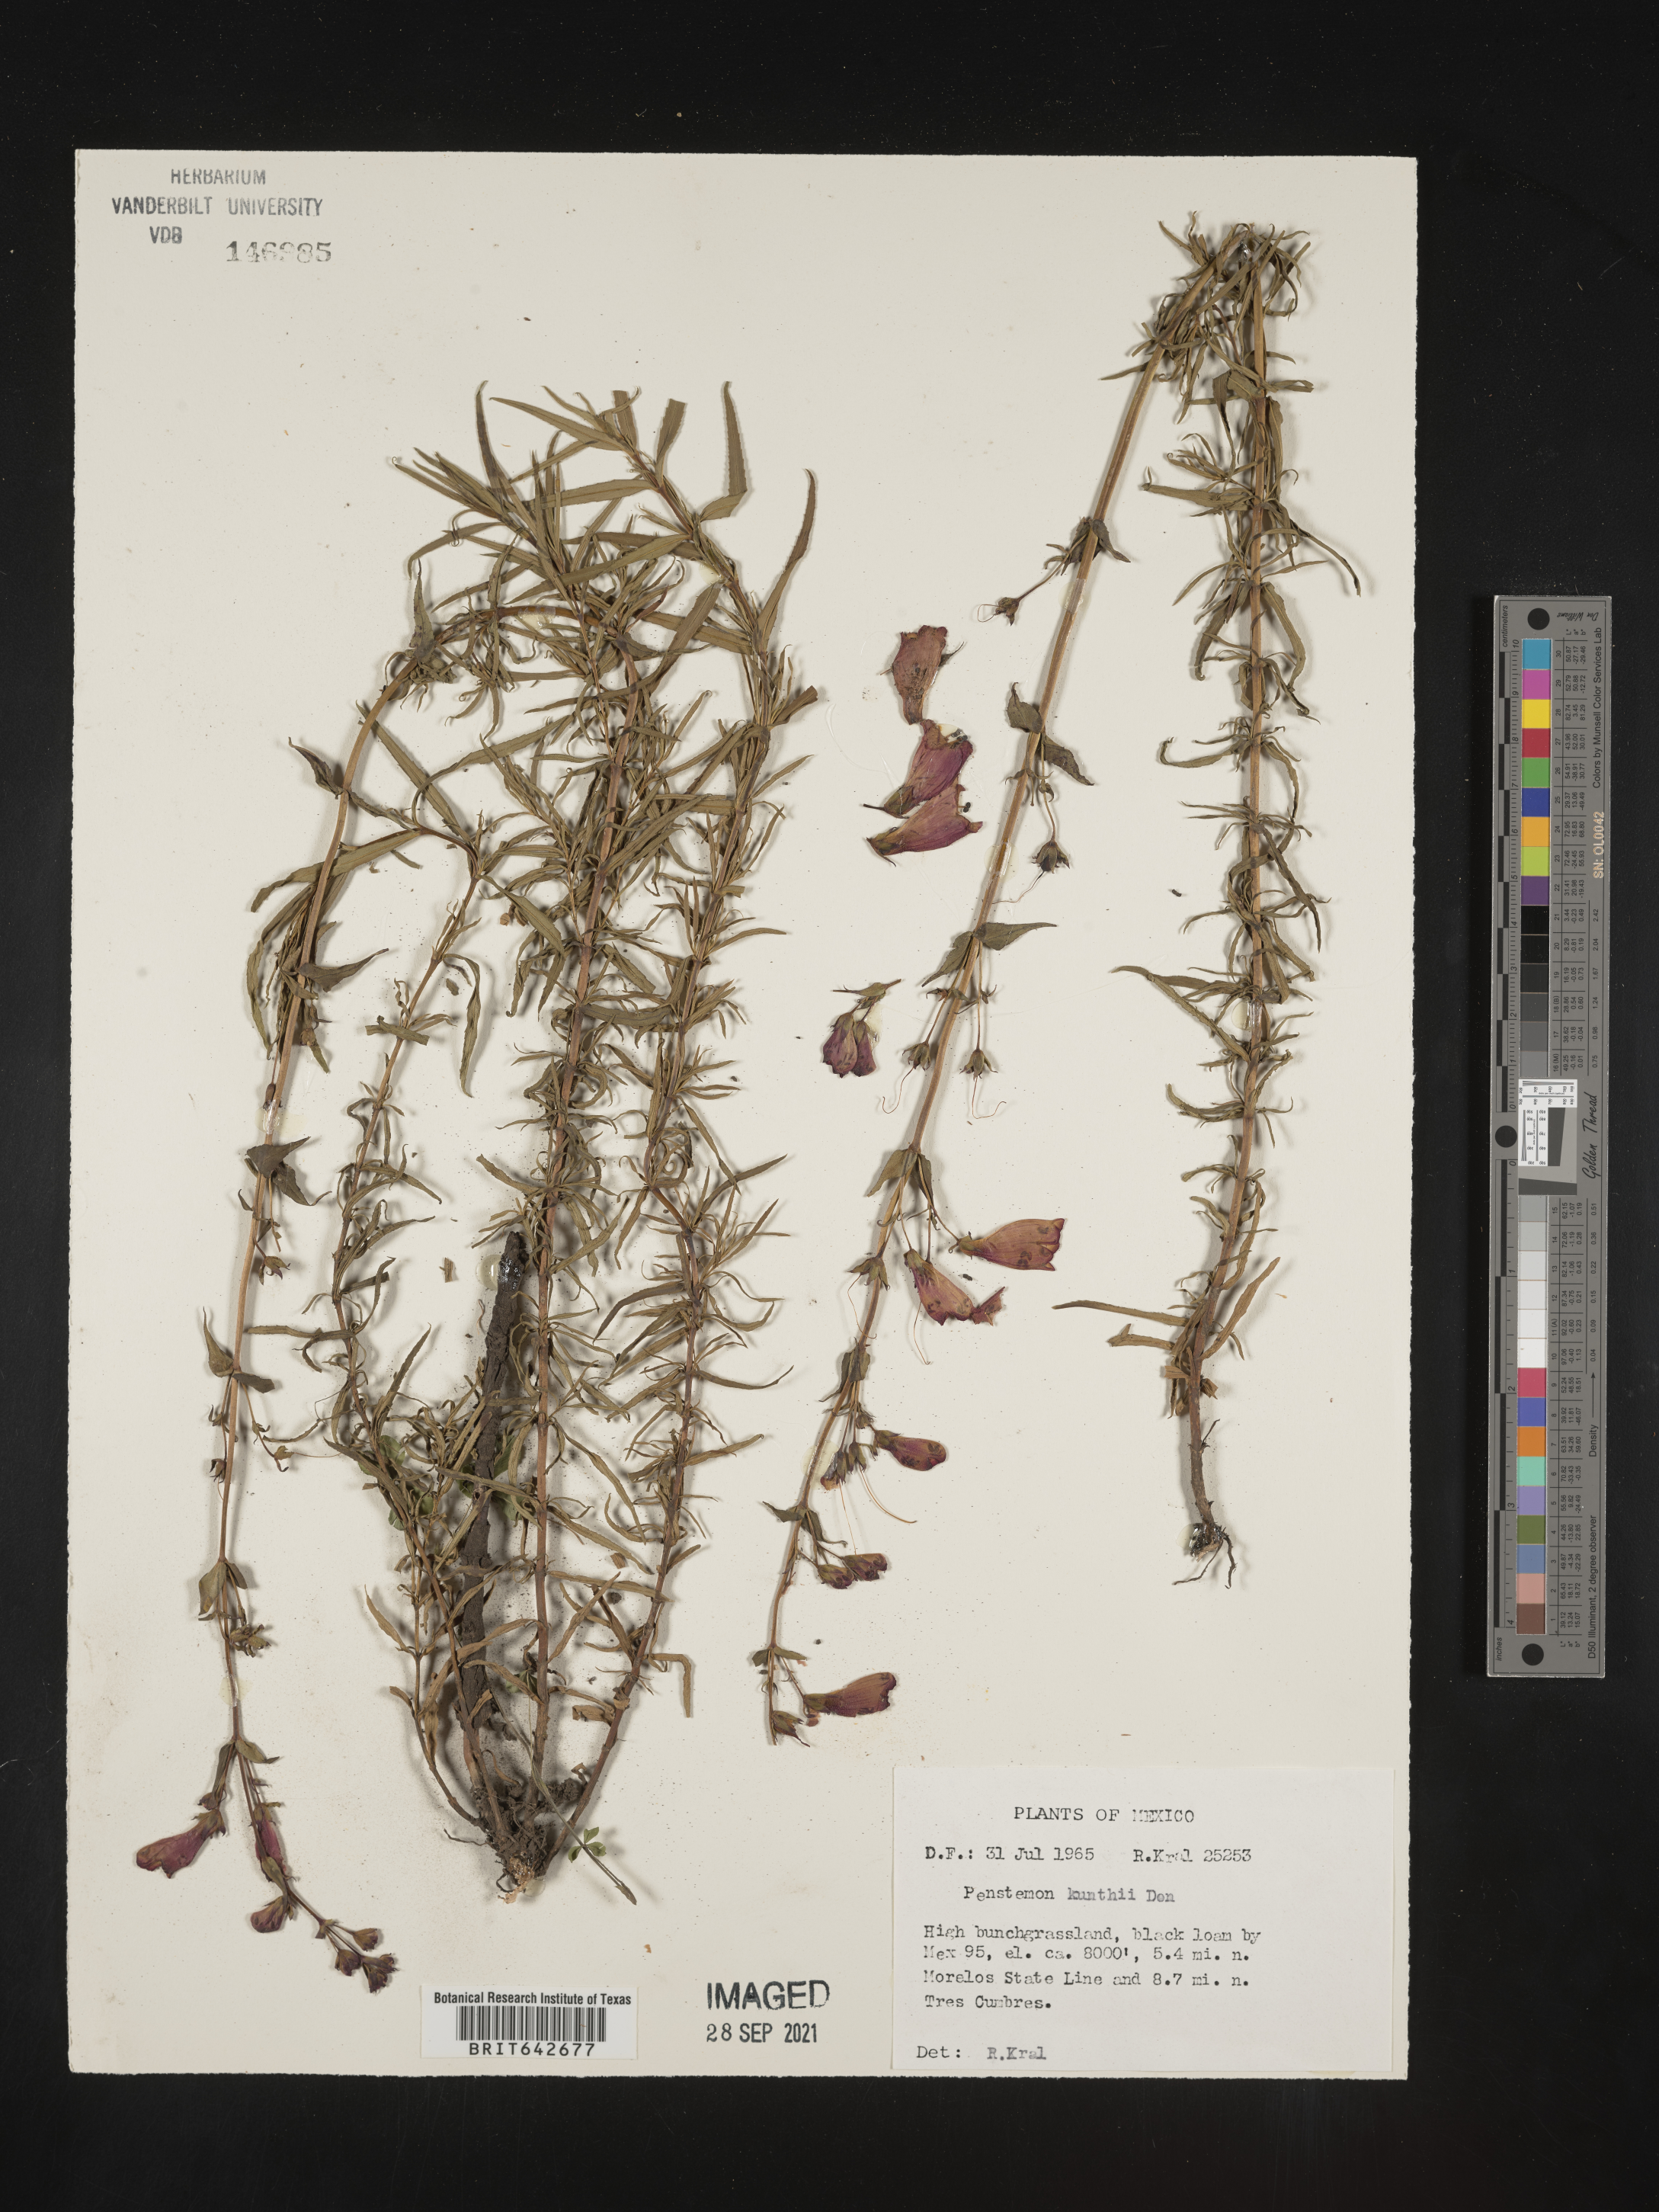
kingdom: Plantae
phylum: Tracheophyta
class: Magnoliopsida
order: Lamiales
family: Plantaginaceae
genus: Penstemon
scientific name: Penstemon
